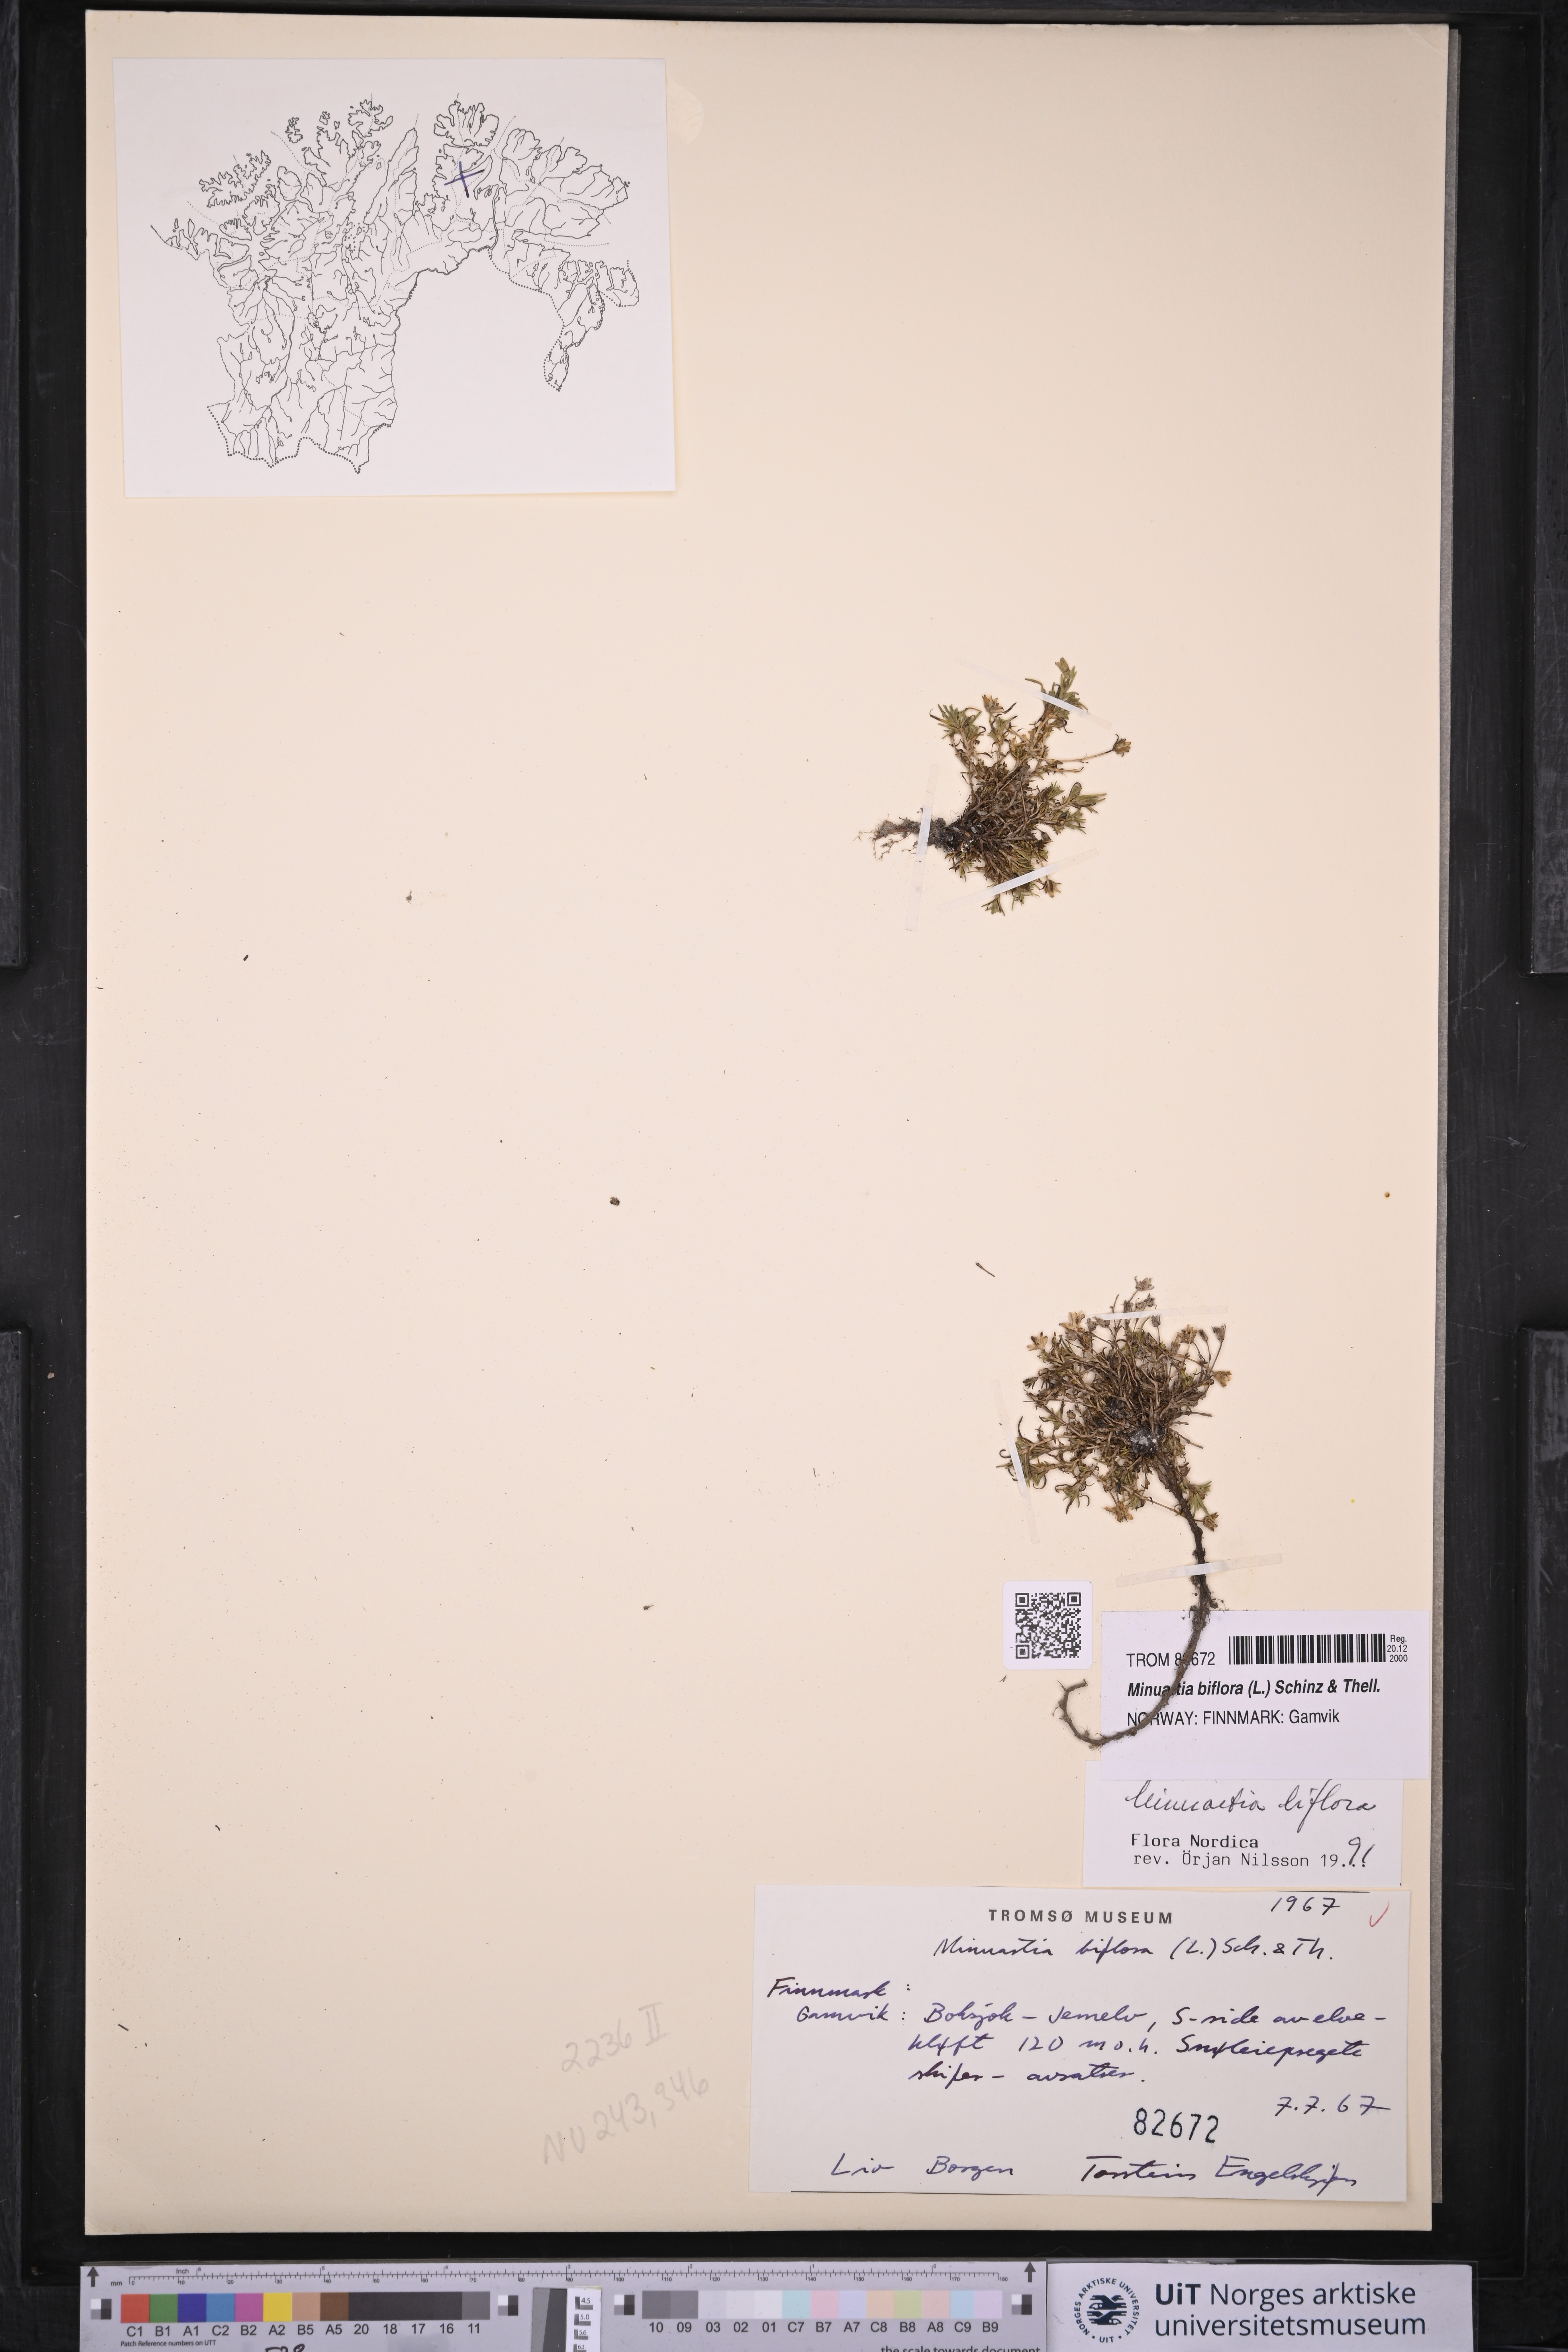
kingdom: Plantae
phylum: Tracheophyta
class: Magnoliopsida
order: Caryophyllales
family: Caryophyllaceae
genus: Cherleria
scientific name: Cherleria biflora
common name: Mountain sandwort
